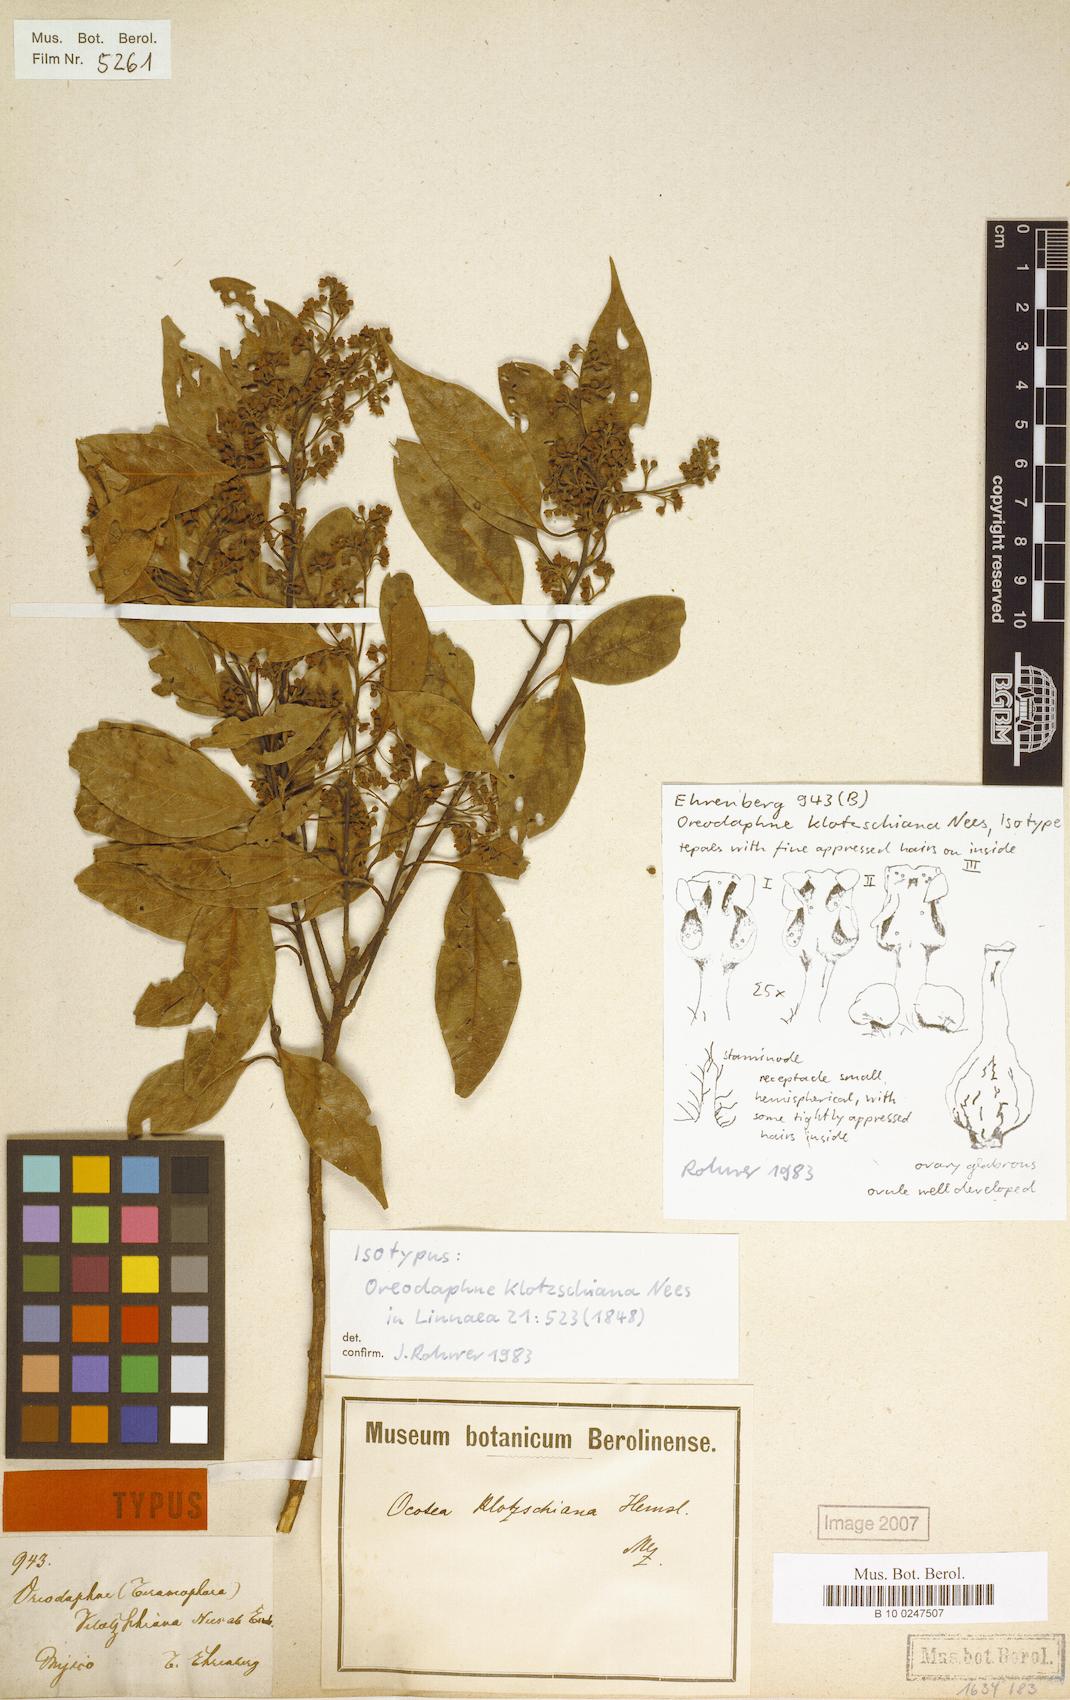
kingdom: Plantae
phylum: Tracheophyta
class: Magnoliopsida
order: Laurales
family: Lauraceae
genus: Ocotea
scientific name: Ocotea klotzschiana
